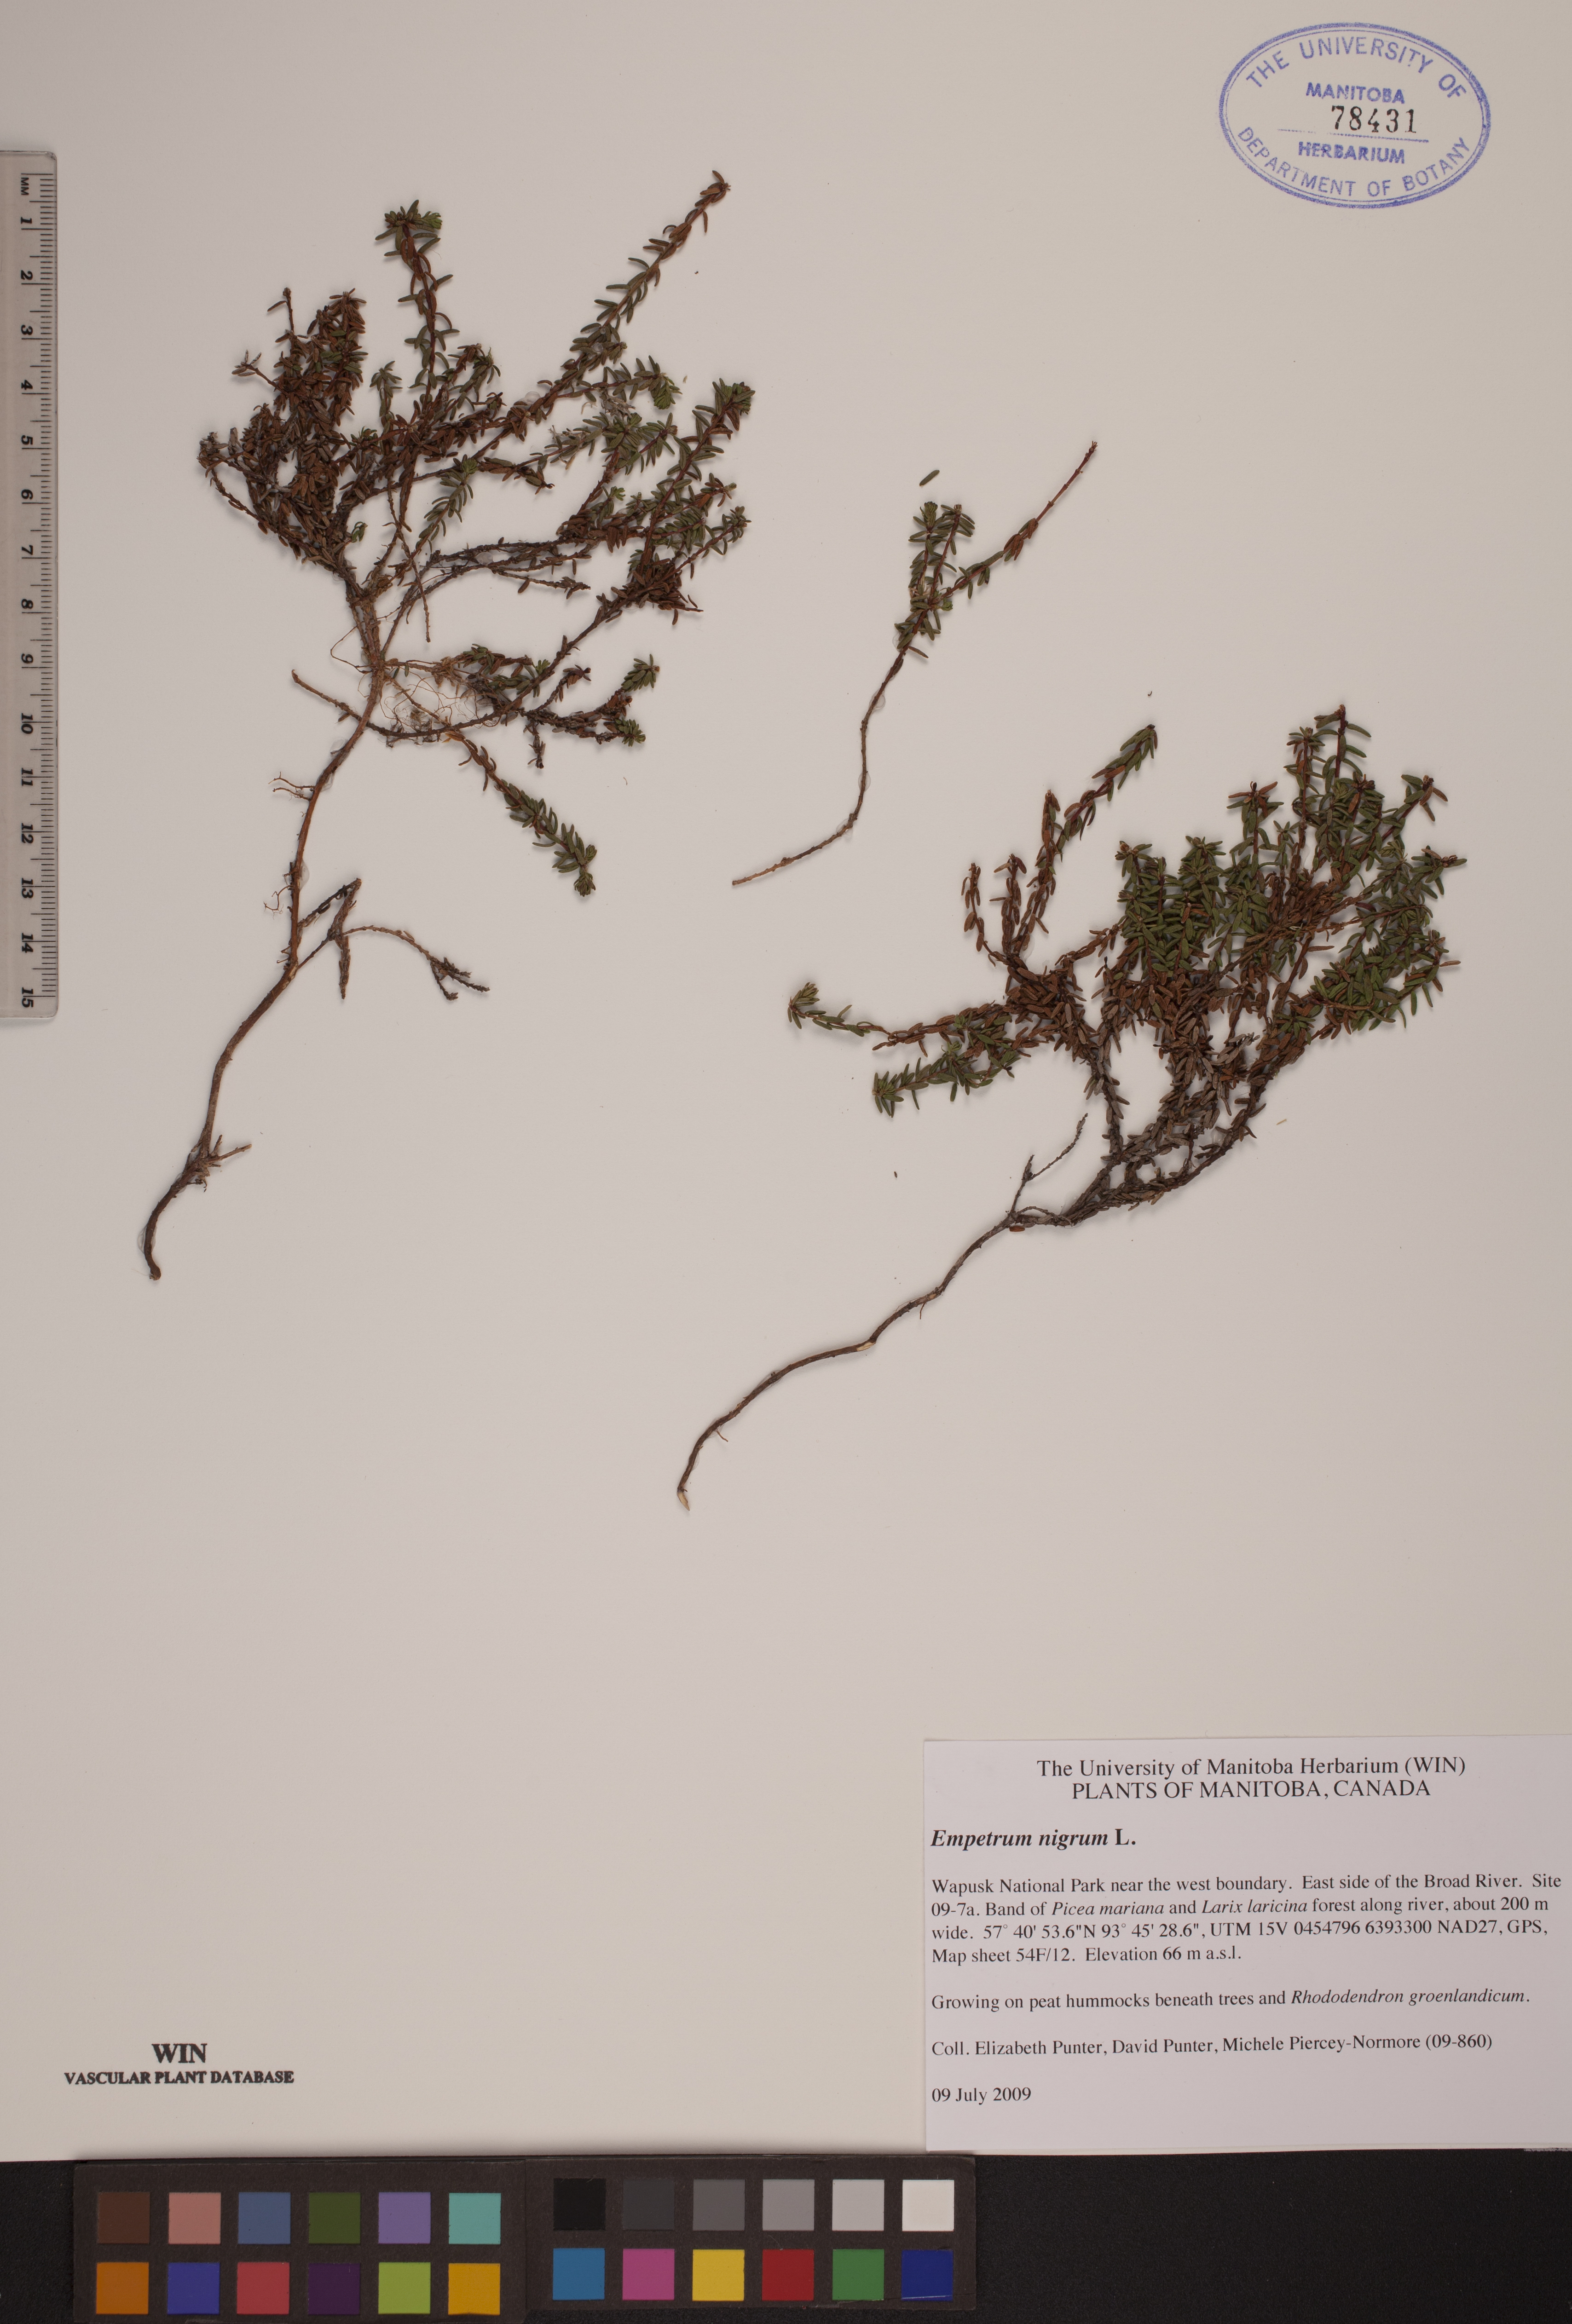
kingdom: Plantae
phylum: Tracheophyta
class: Magnoliopsida
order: Ericales
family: Ericaceae
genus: Empetrum
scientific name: Empetrum nigrum
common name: Black crowberry
